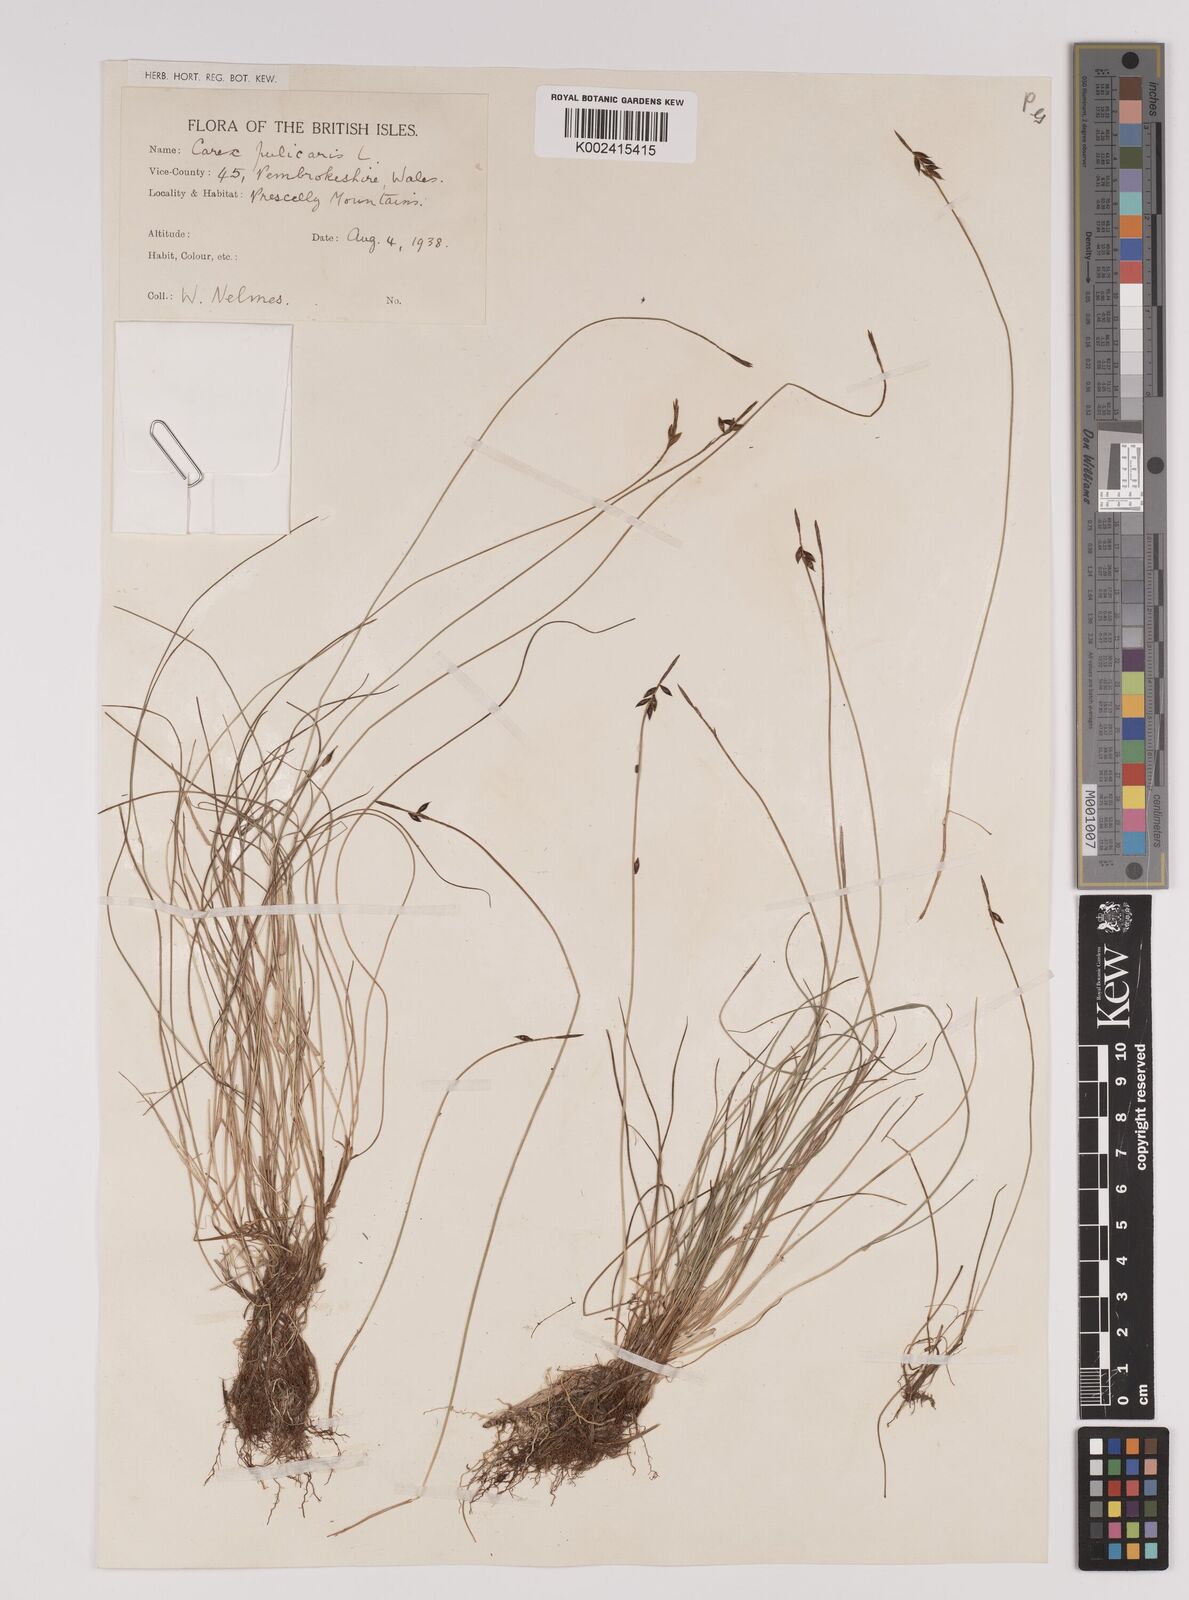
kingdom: Plantae
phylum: Tracheophyta
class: Liliopsida
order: Poales
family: Cyperaceae
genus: Carex
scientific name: Carex pulicaris
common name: Flea sedge
